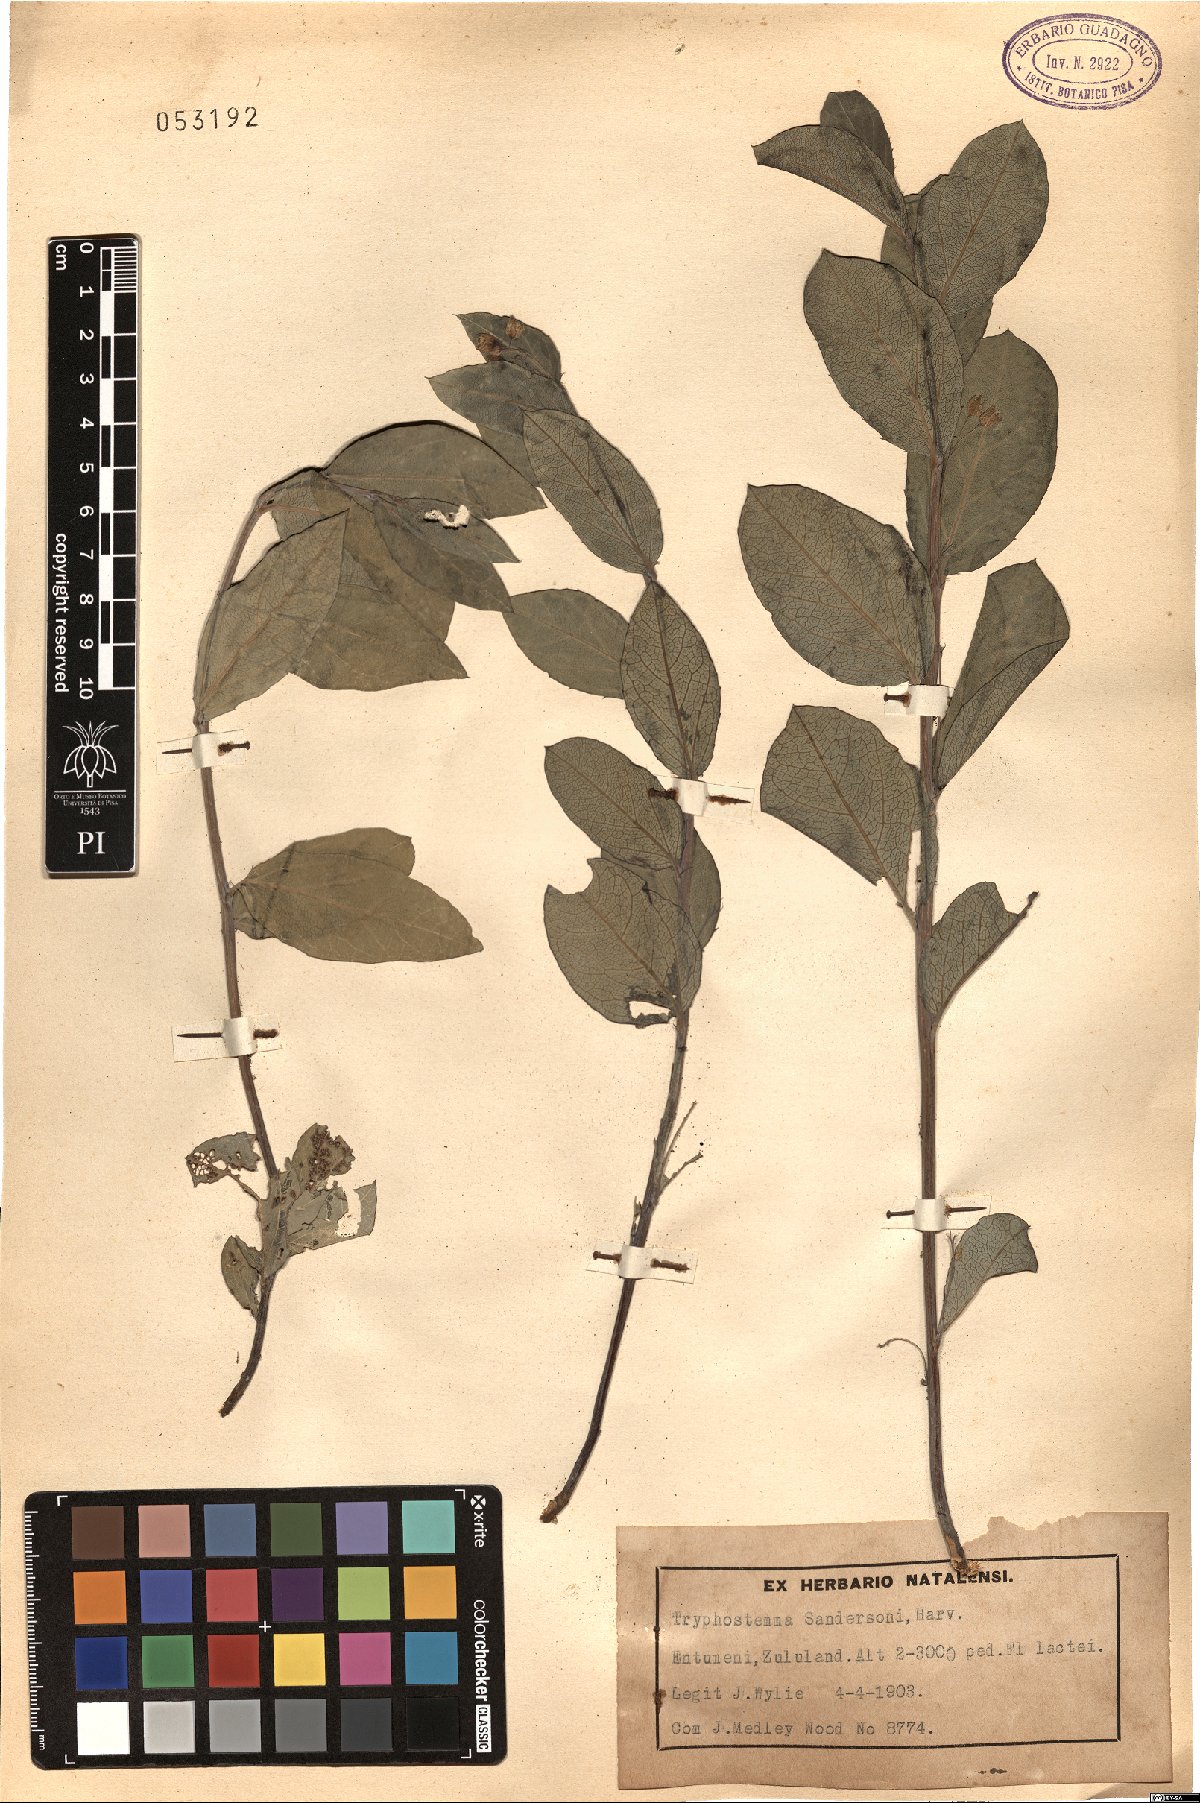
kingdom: Plantae
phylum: Tracheophyta
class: Magnoliopsida
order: Malpighiales
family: Passifloraceae
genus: Basananthe
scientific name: Basananthe sandersonii
